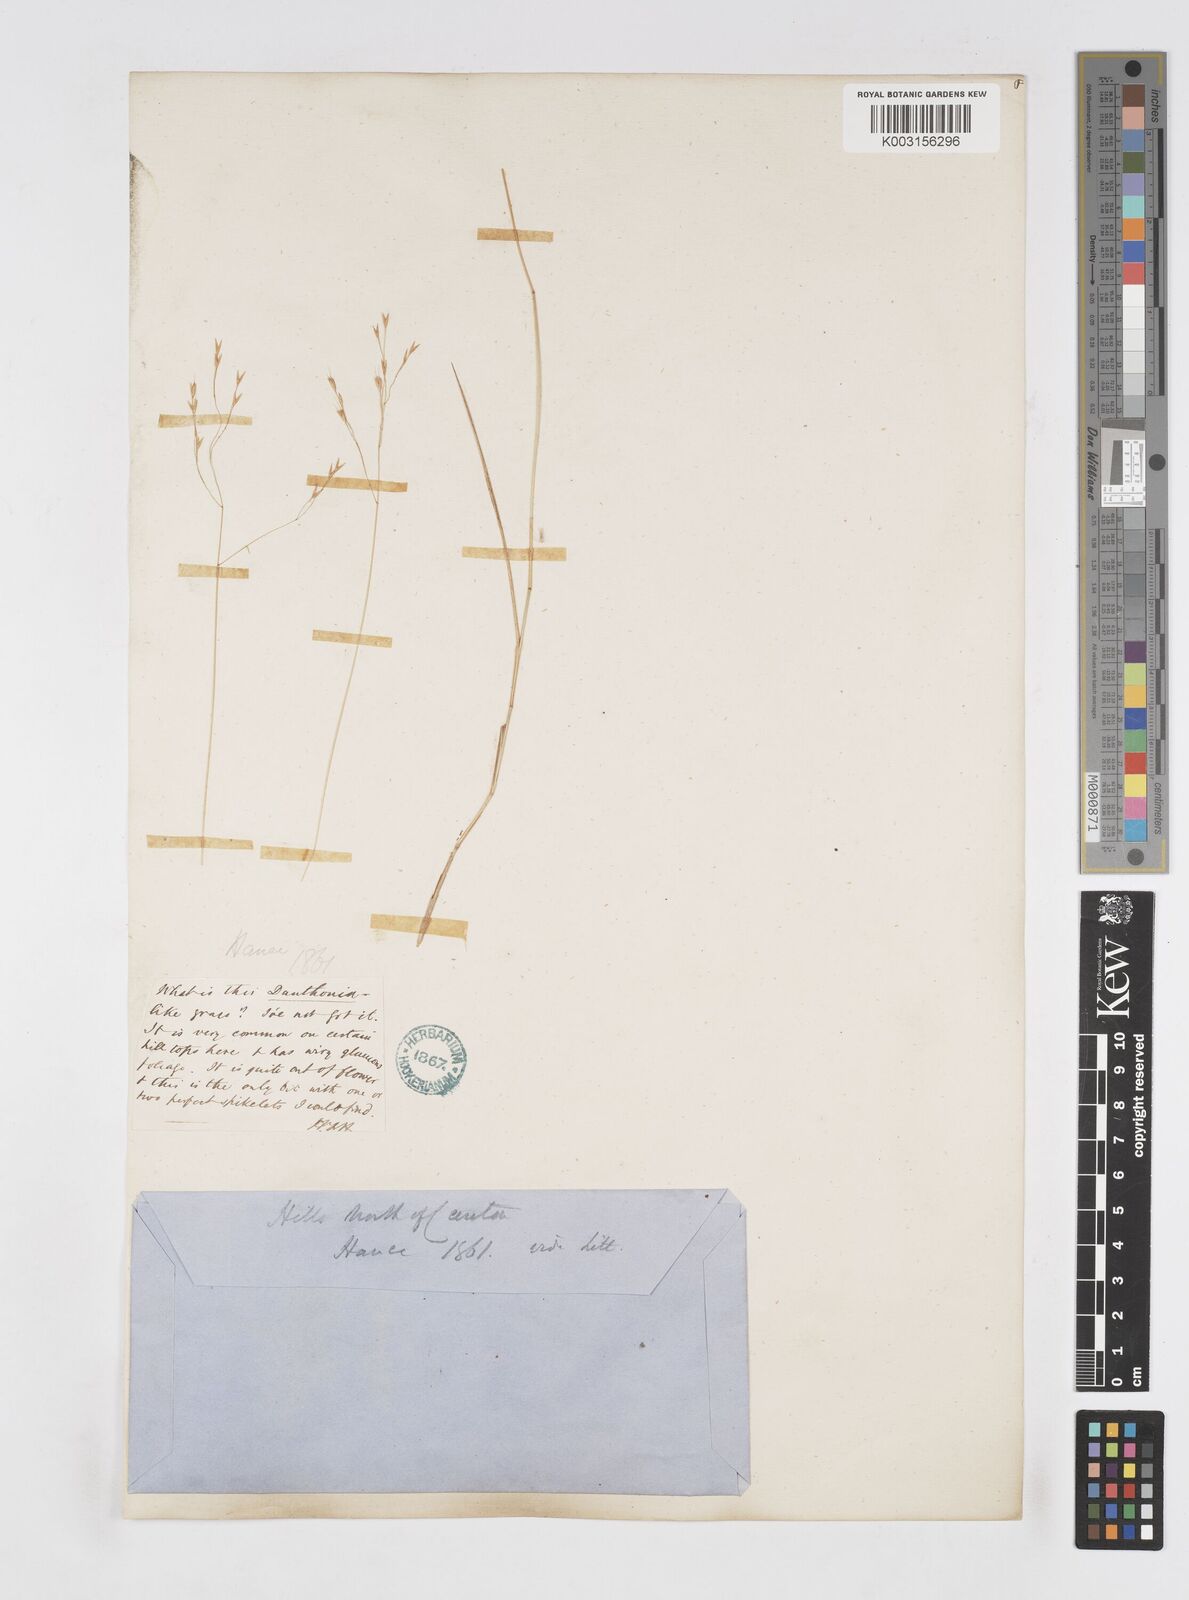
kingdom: Plantae
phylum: Tracheophyta
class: Liliopsida
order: Poales
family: Poaceae
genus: Eriachne
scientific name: Eriachne pallescens
